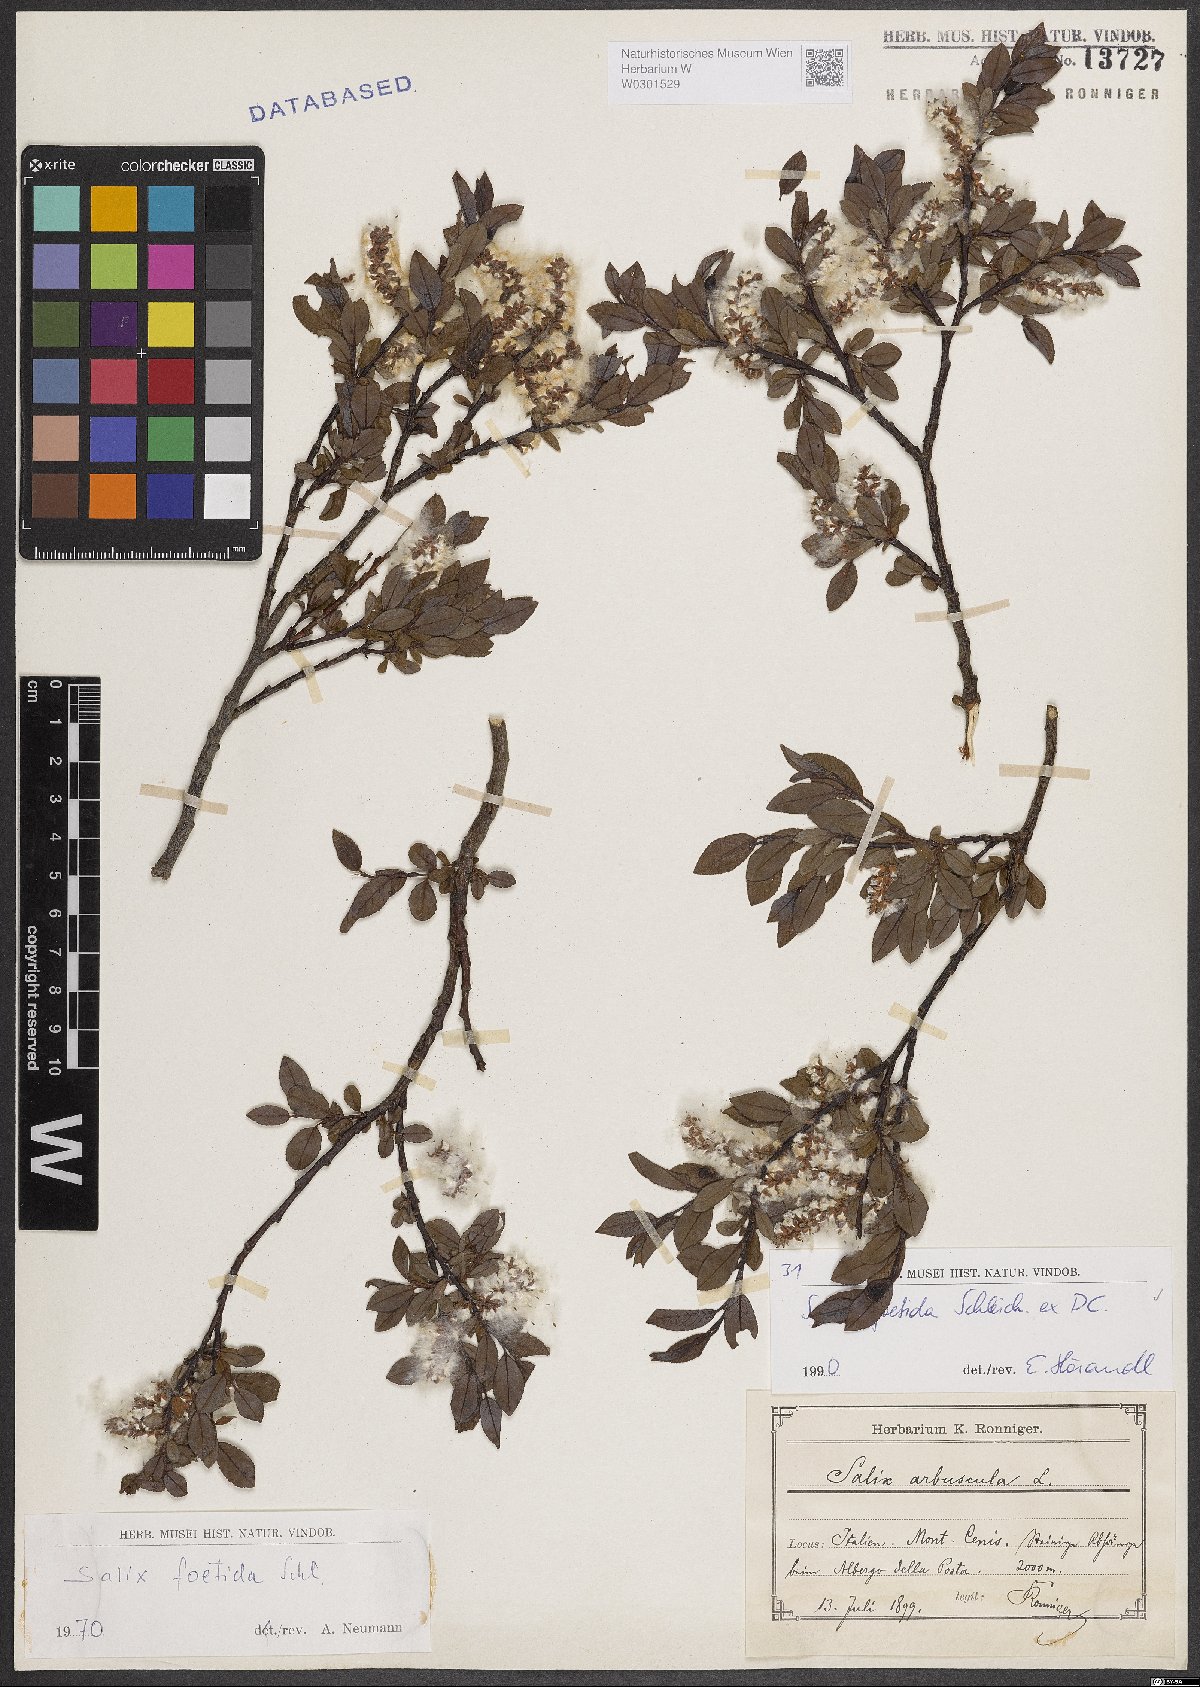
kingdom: Plantae
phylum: Tracheophyta
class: Magnoliopsida
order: Malpighiales
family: Salicaceae
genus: Salix
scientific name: Salix foetida
